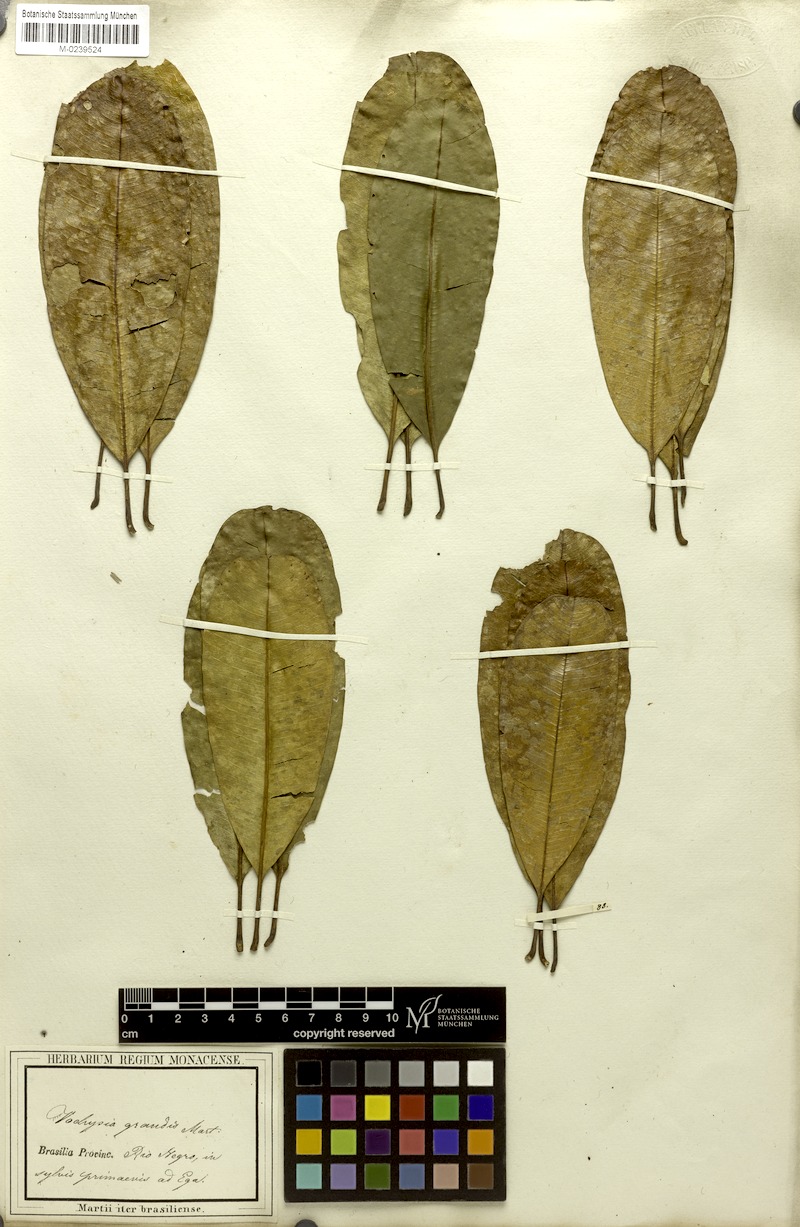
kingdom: Plantae
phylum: Tracheophyta
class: Magnoliopsida
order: Myrtales
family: Vochysiaceae
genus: Vochysia
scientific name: Vochysia grandis
